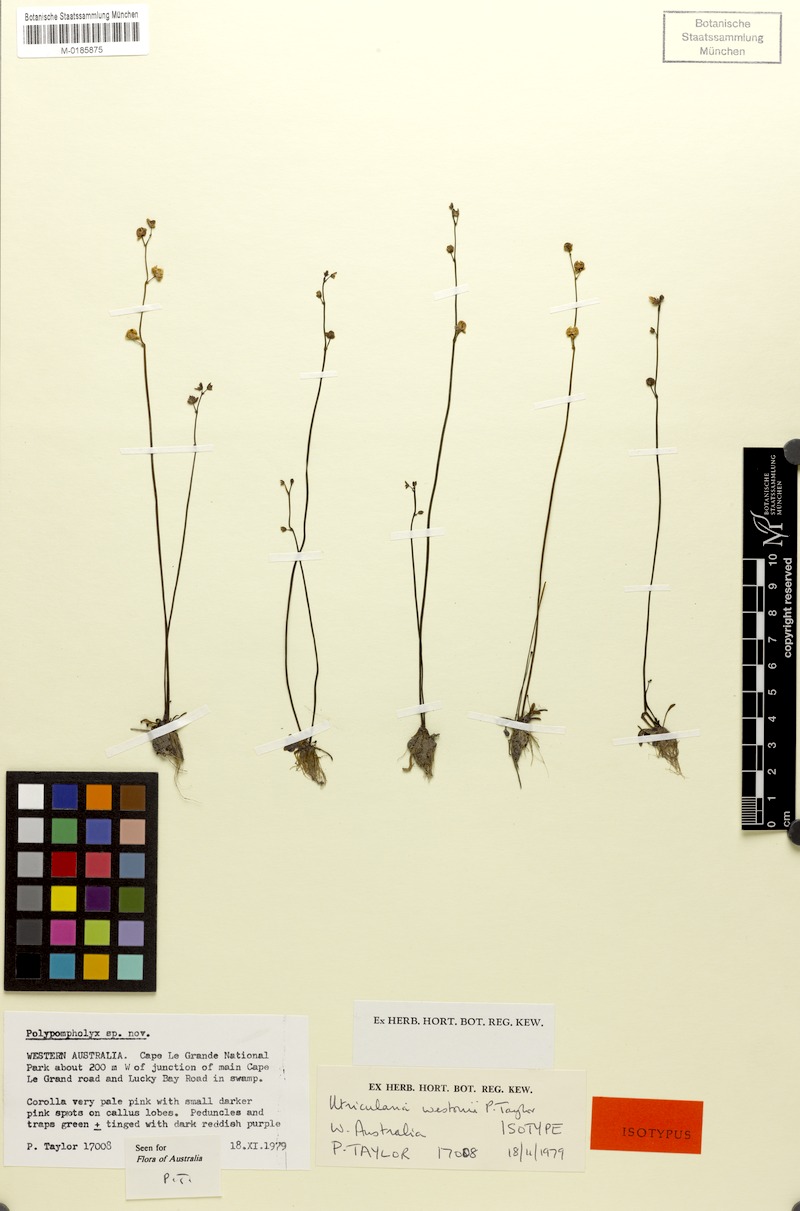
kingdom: Plantae
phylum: Tracheophyta
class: Magnoliopsida
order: Lamiales
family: Lentibulariaceae
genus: Utricularia
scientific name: Utricularia westonii
